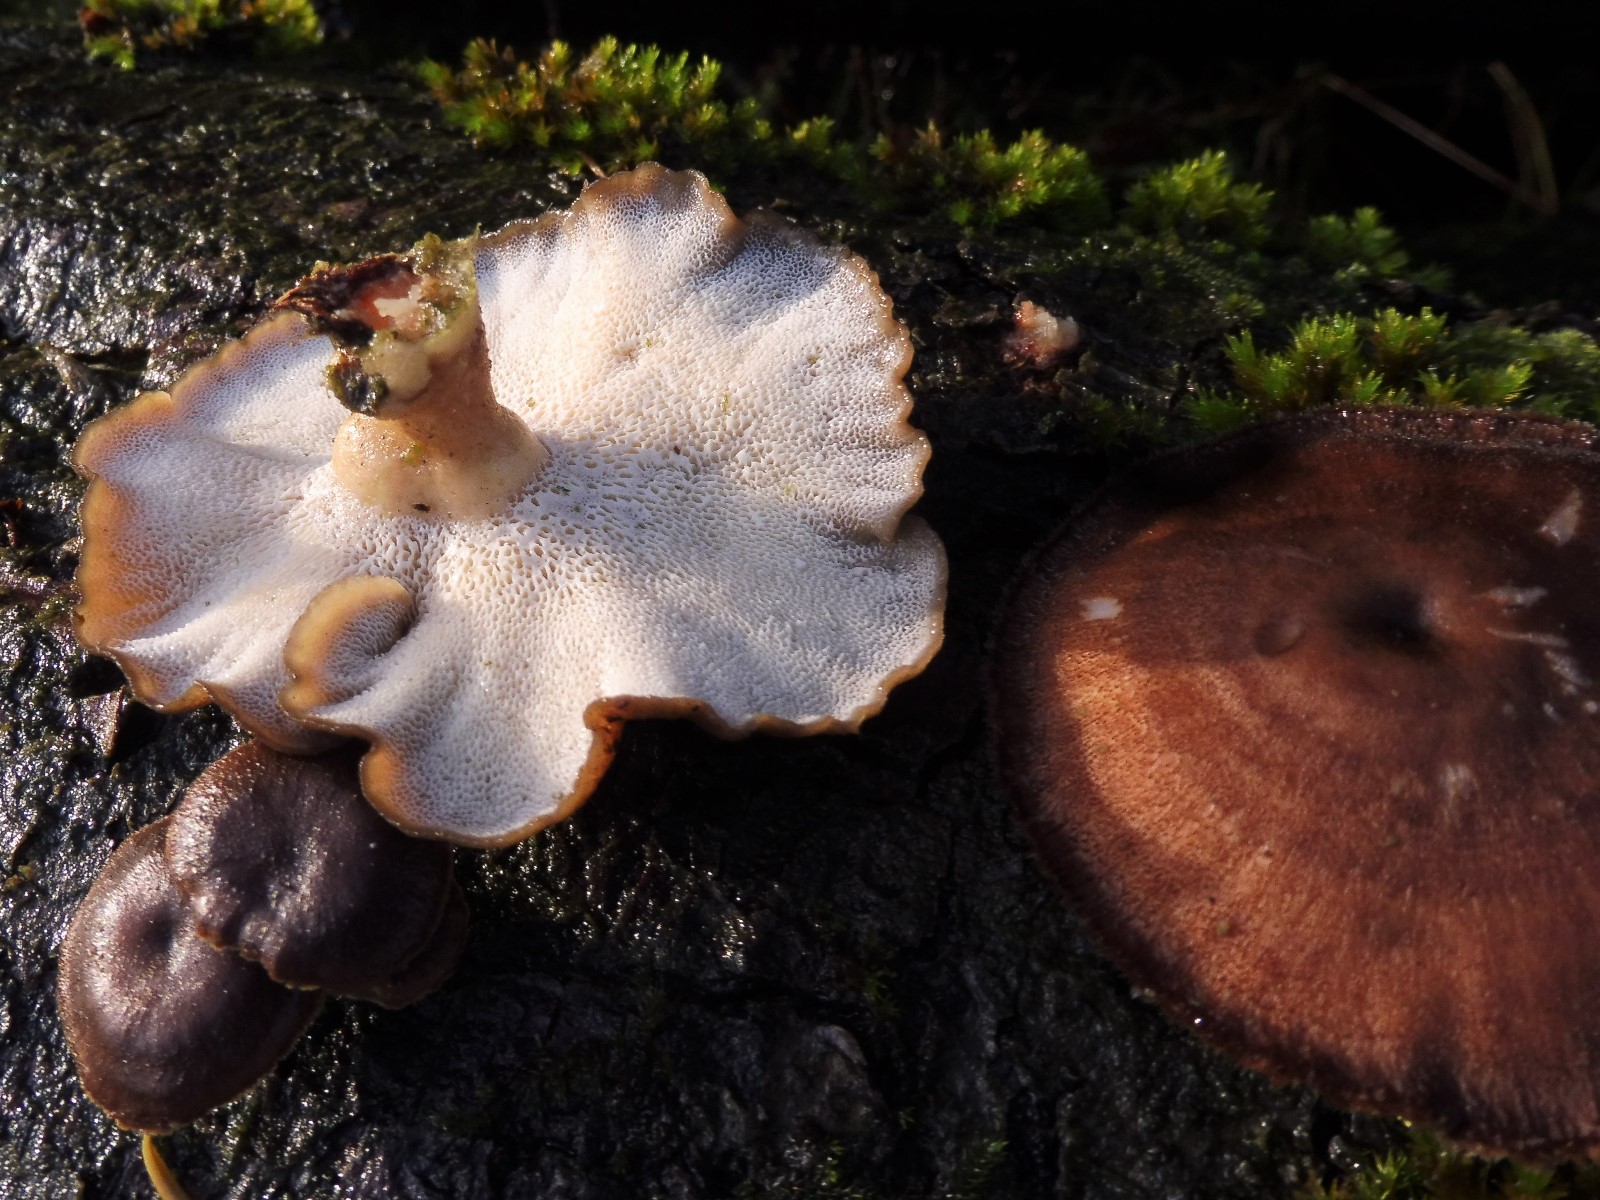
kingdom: Fungi
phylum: Basidiomycota
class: Agaricomycetes
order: Polyporales
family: Polyporaceae
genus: Lentinus
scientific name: Lentinus brumalis
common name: vinter-stilkporesvamp
